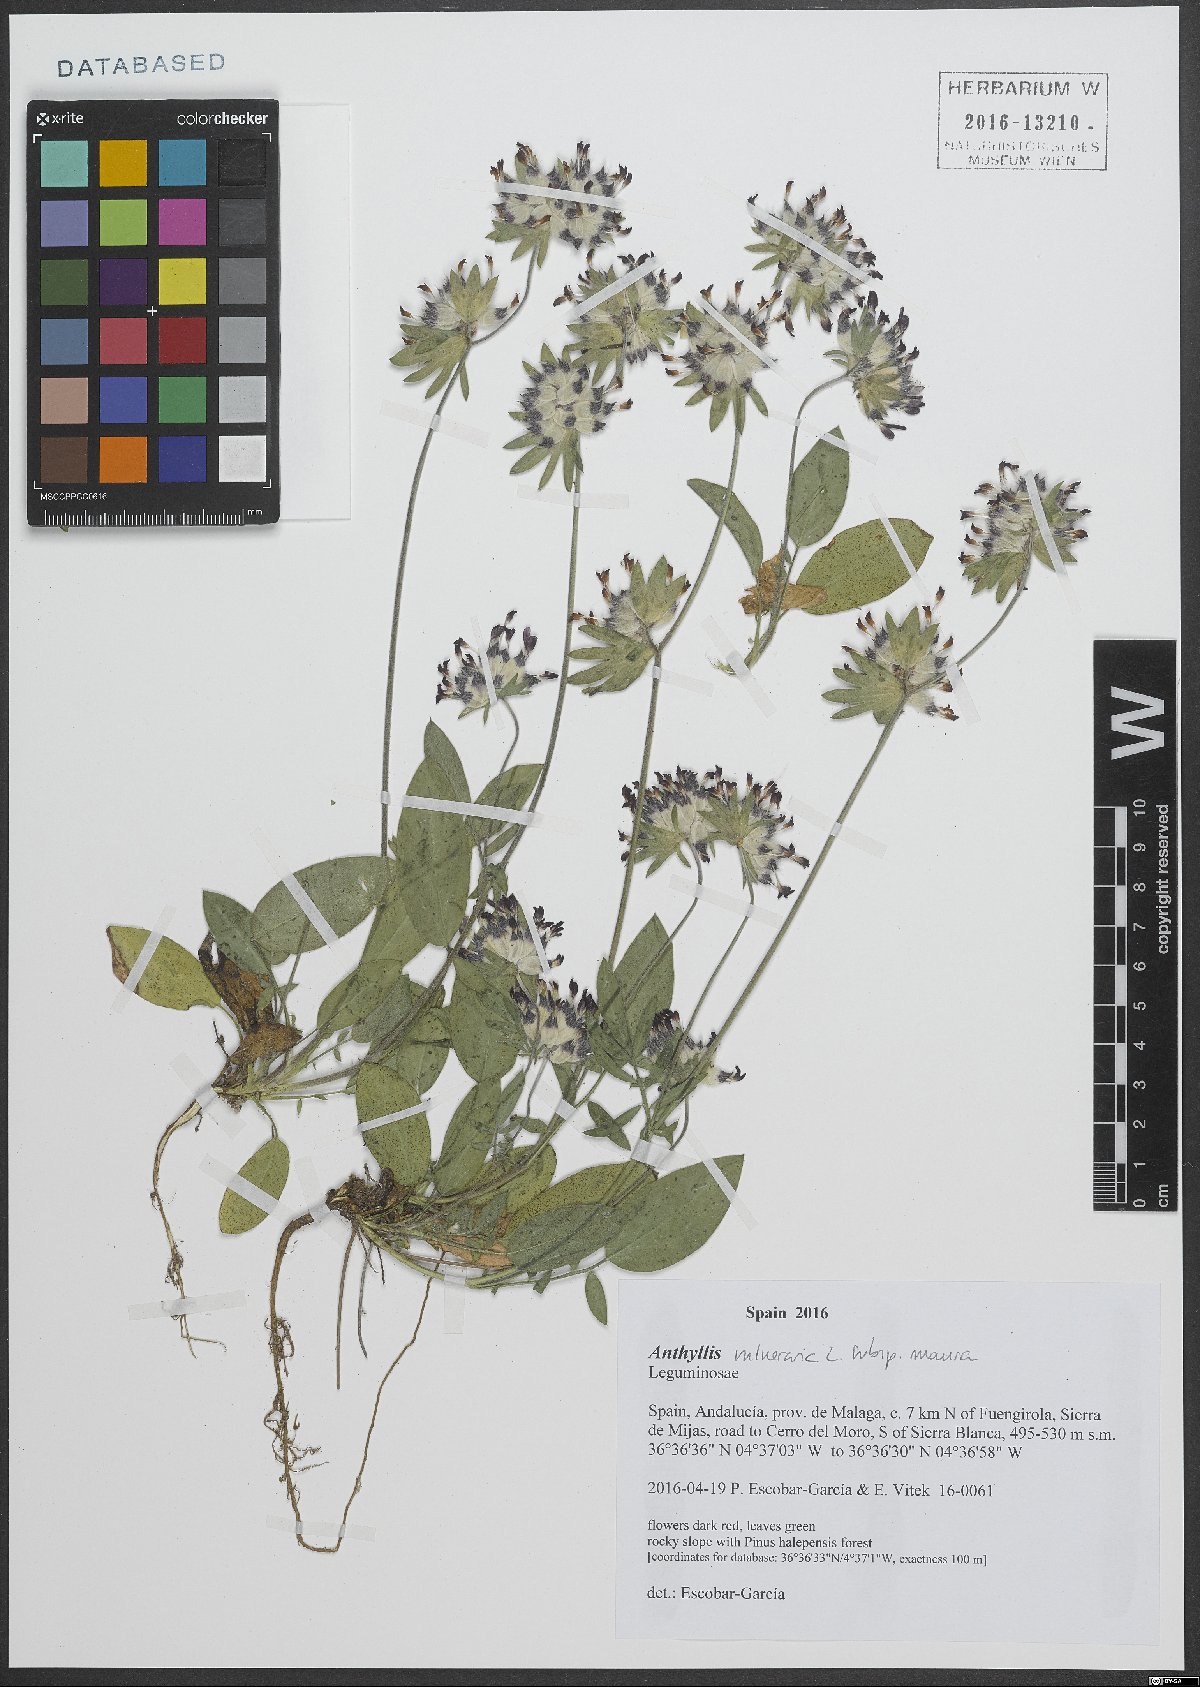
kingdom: Plantae
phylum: Tracheophyta
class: Magnoliopsida
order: Fabales
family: Fabaceae
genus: Anthyllis
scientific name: Anthyllis vulneraria
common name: Kidney vetch
